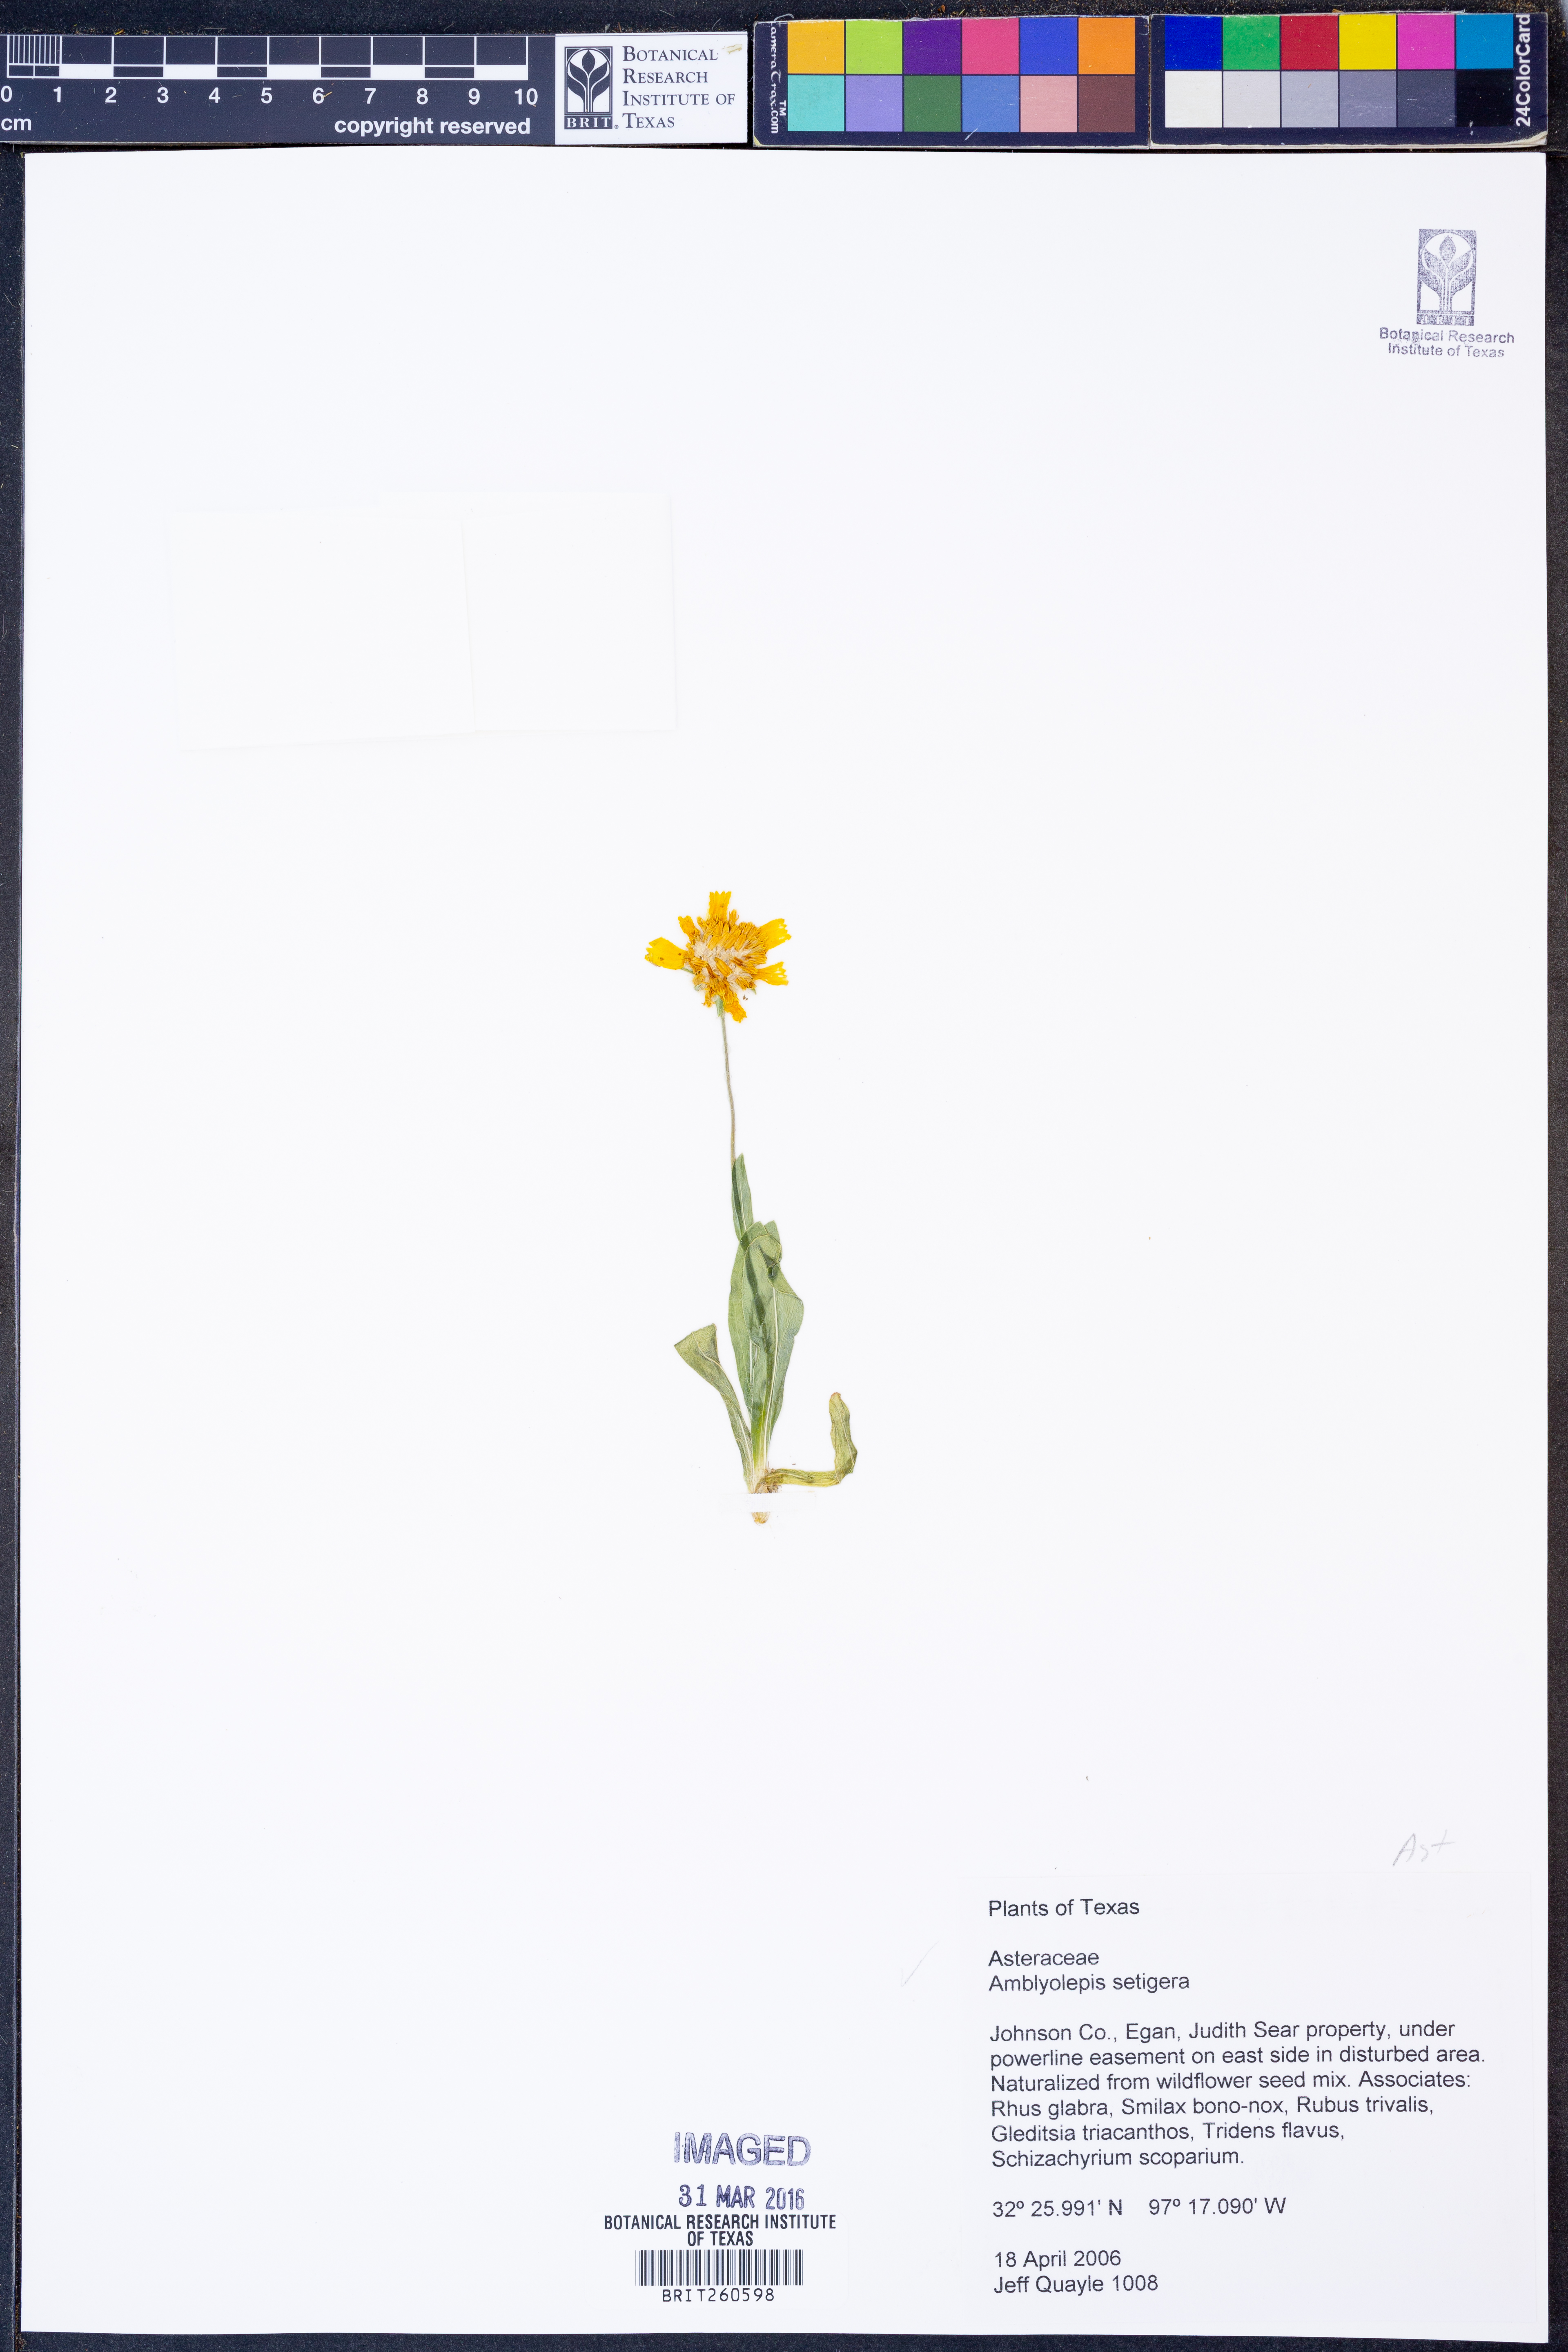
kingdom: Plantae
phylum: Tracheophyta
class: Magnoliopsida
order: Asterales
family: Asteraceae
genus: Amblyolepis
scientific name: Amblyolepis setigera
